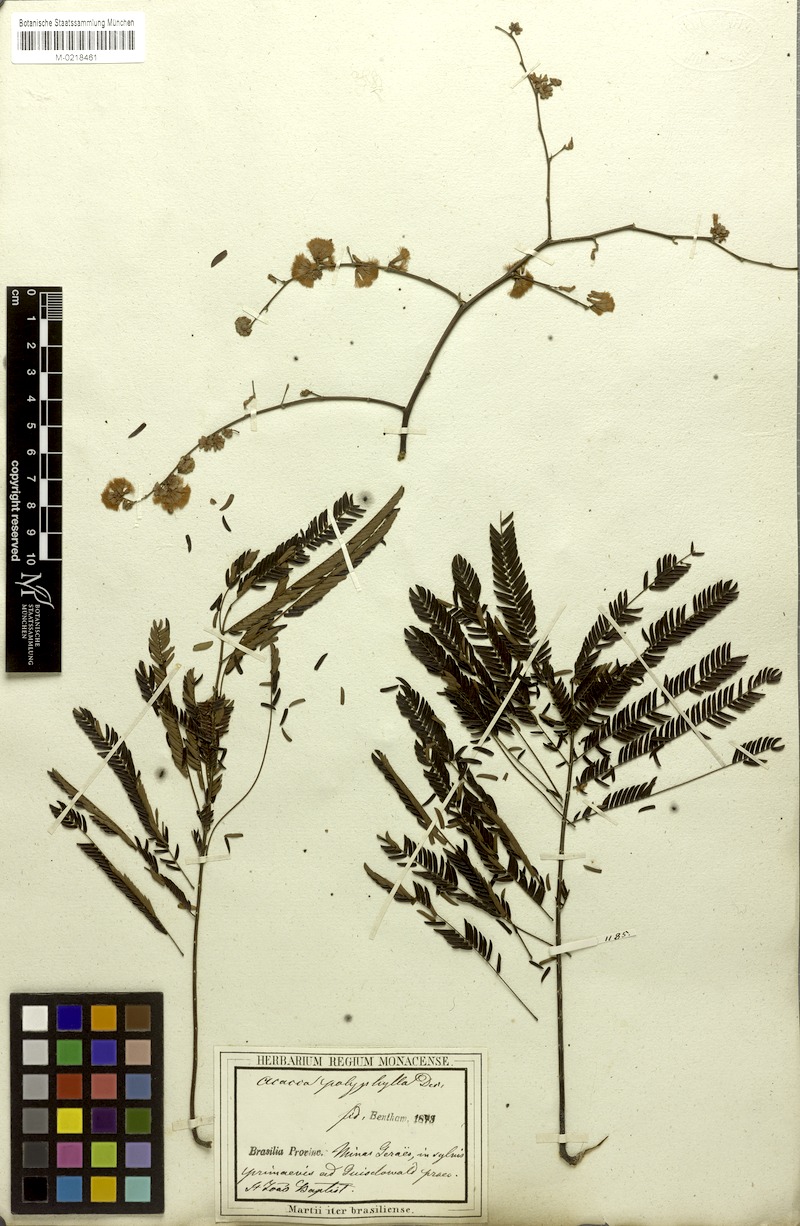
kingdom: Plantae
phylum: Tracheophyta
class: Magnoliopsida
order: Fabales
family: Fabaceae
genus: Senegalia
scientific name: Senegalia polyphylla
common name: White-tamarind
